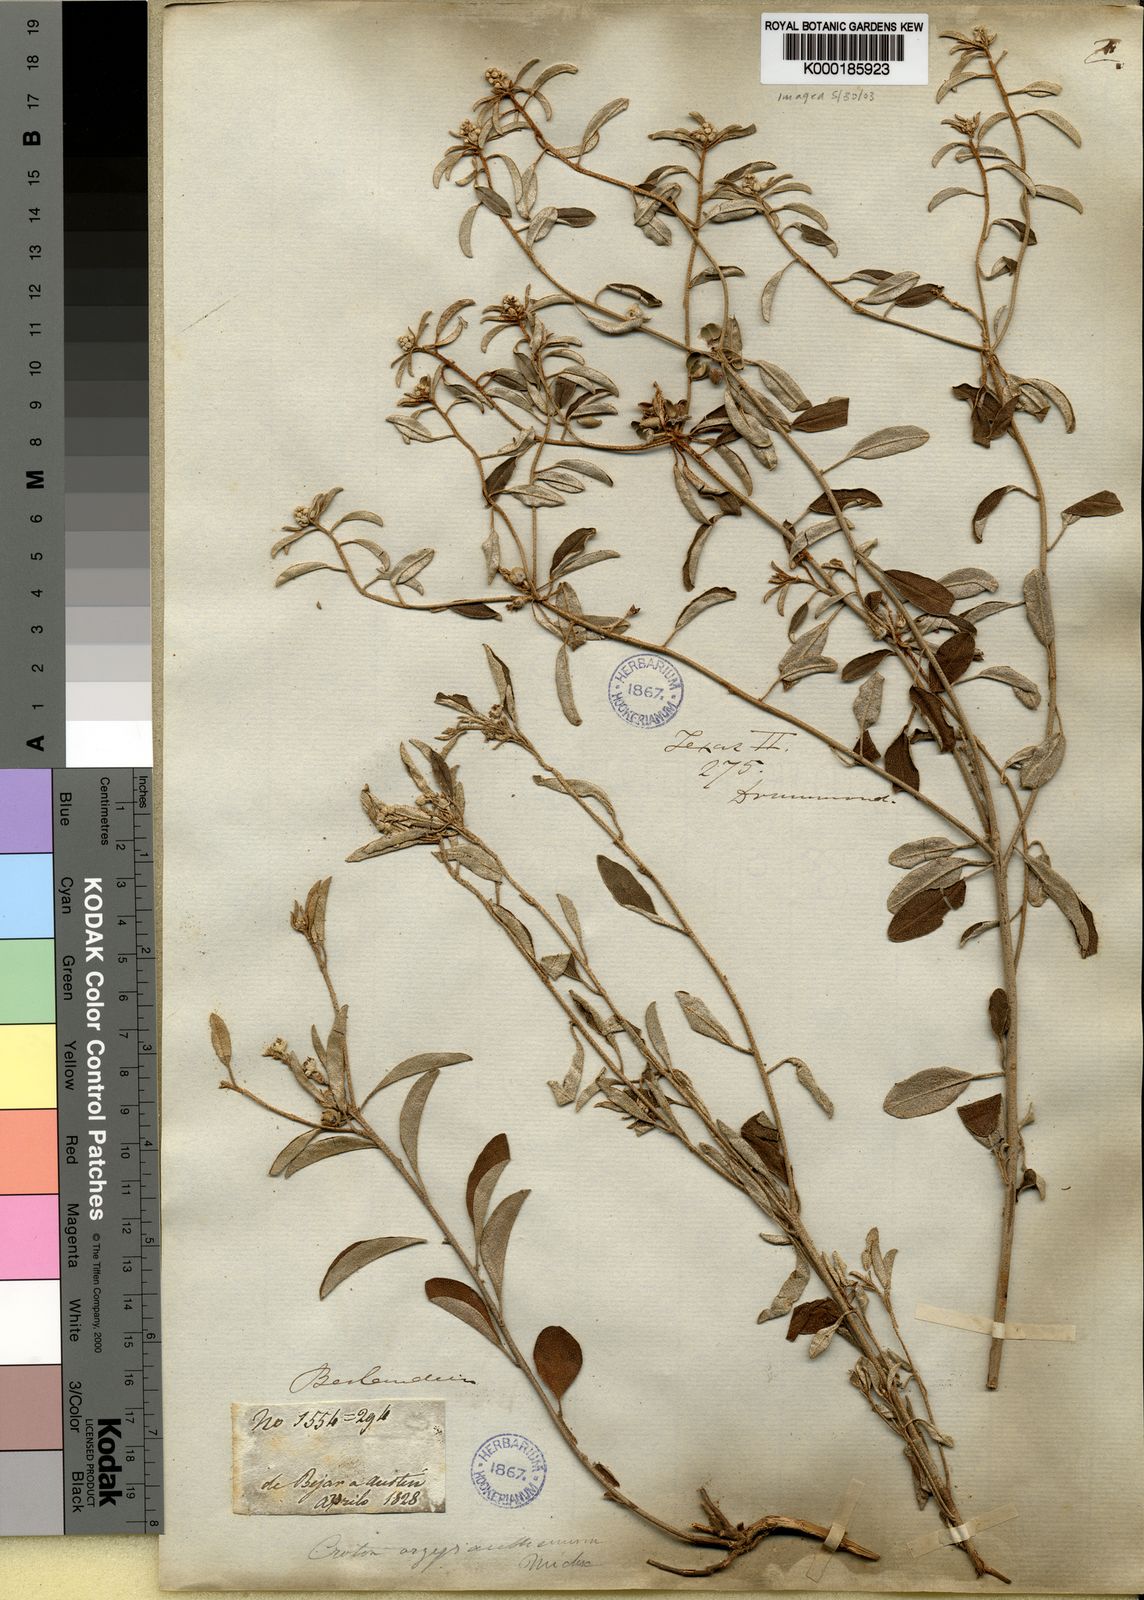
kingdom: Plantae
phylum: Tracheophyta
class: Magnoliopsida
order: Malpighiales
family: Euphorbiaceae
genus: Croton
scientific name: Croton argyranthemus
